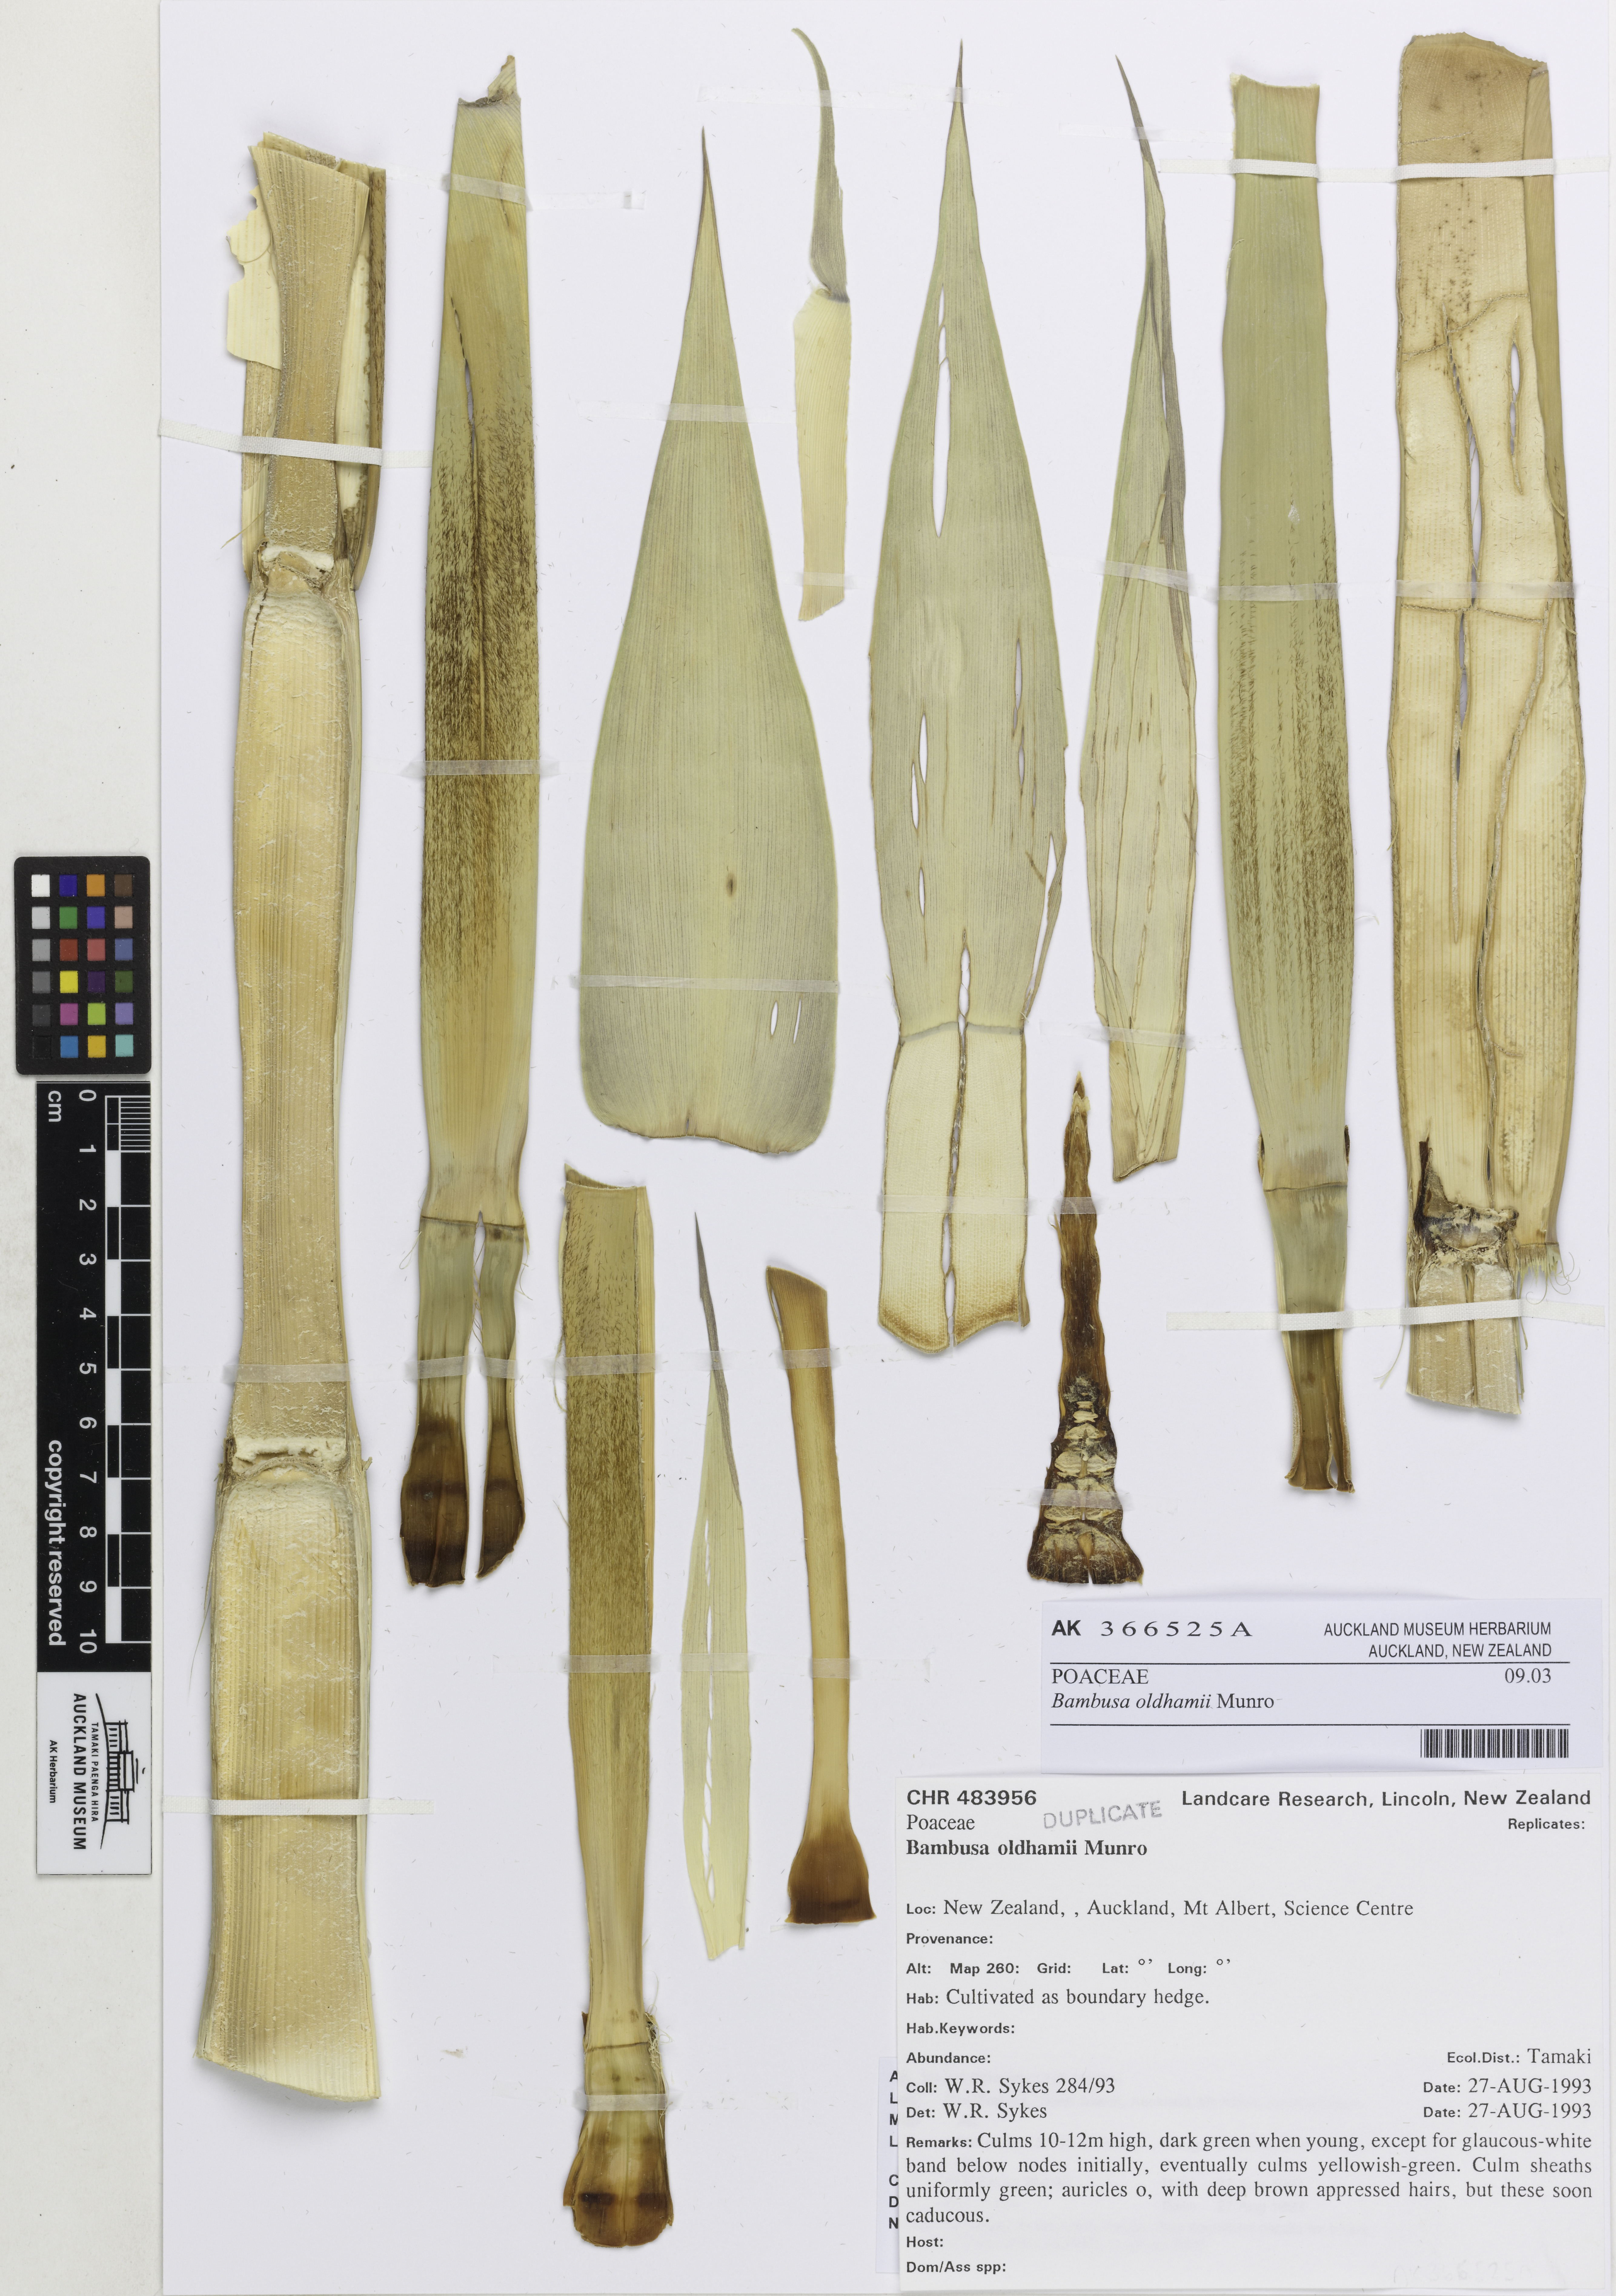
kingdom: Plantae
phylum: Tracheophyta
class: Liliopsida
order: Poales
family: Poaceae
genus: Bambusa
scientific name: Bambusa oldhamii
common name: Giant timber bamboo
